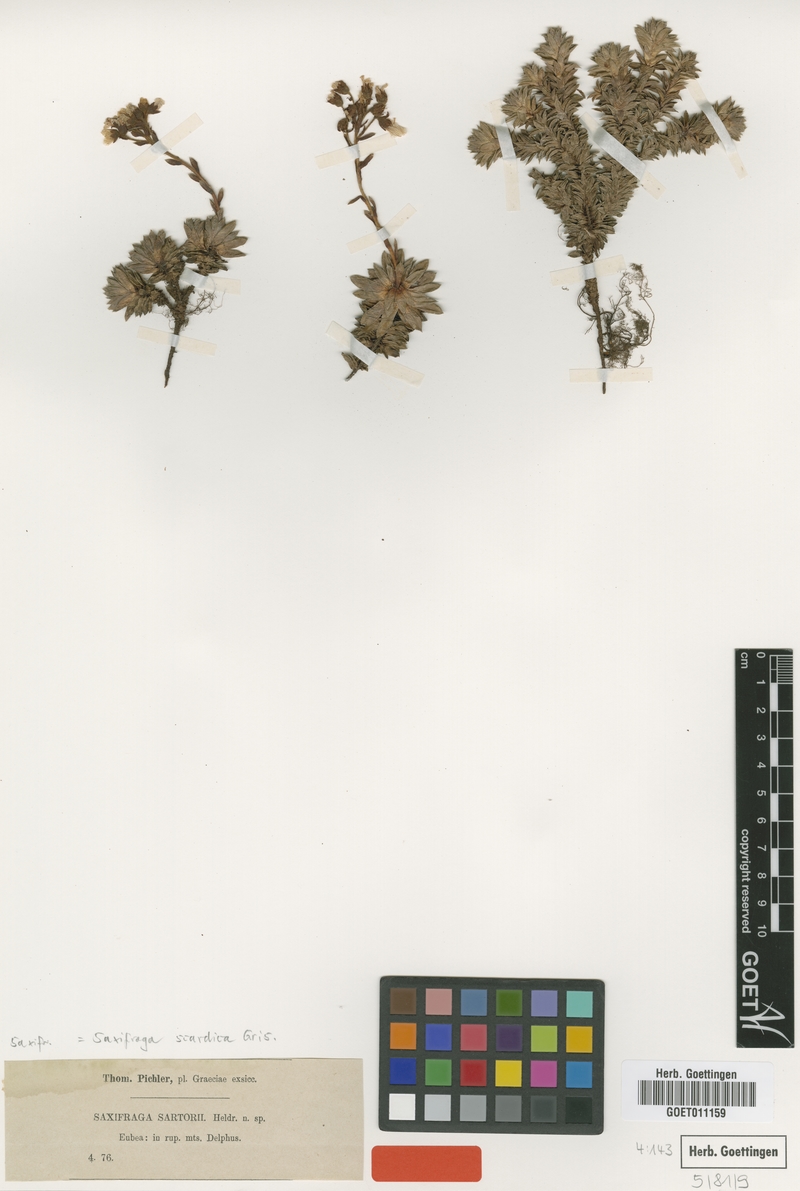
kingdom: Plantae
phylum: Tracheophyta
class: Magnoliopsida
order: Saxifragales
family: Saxifragaceae
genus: Saxifraga
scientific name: Saxifraga scardica
